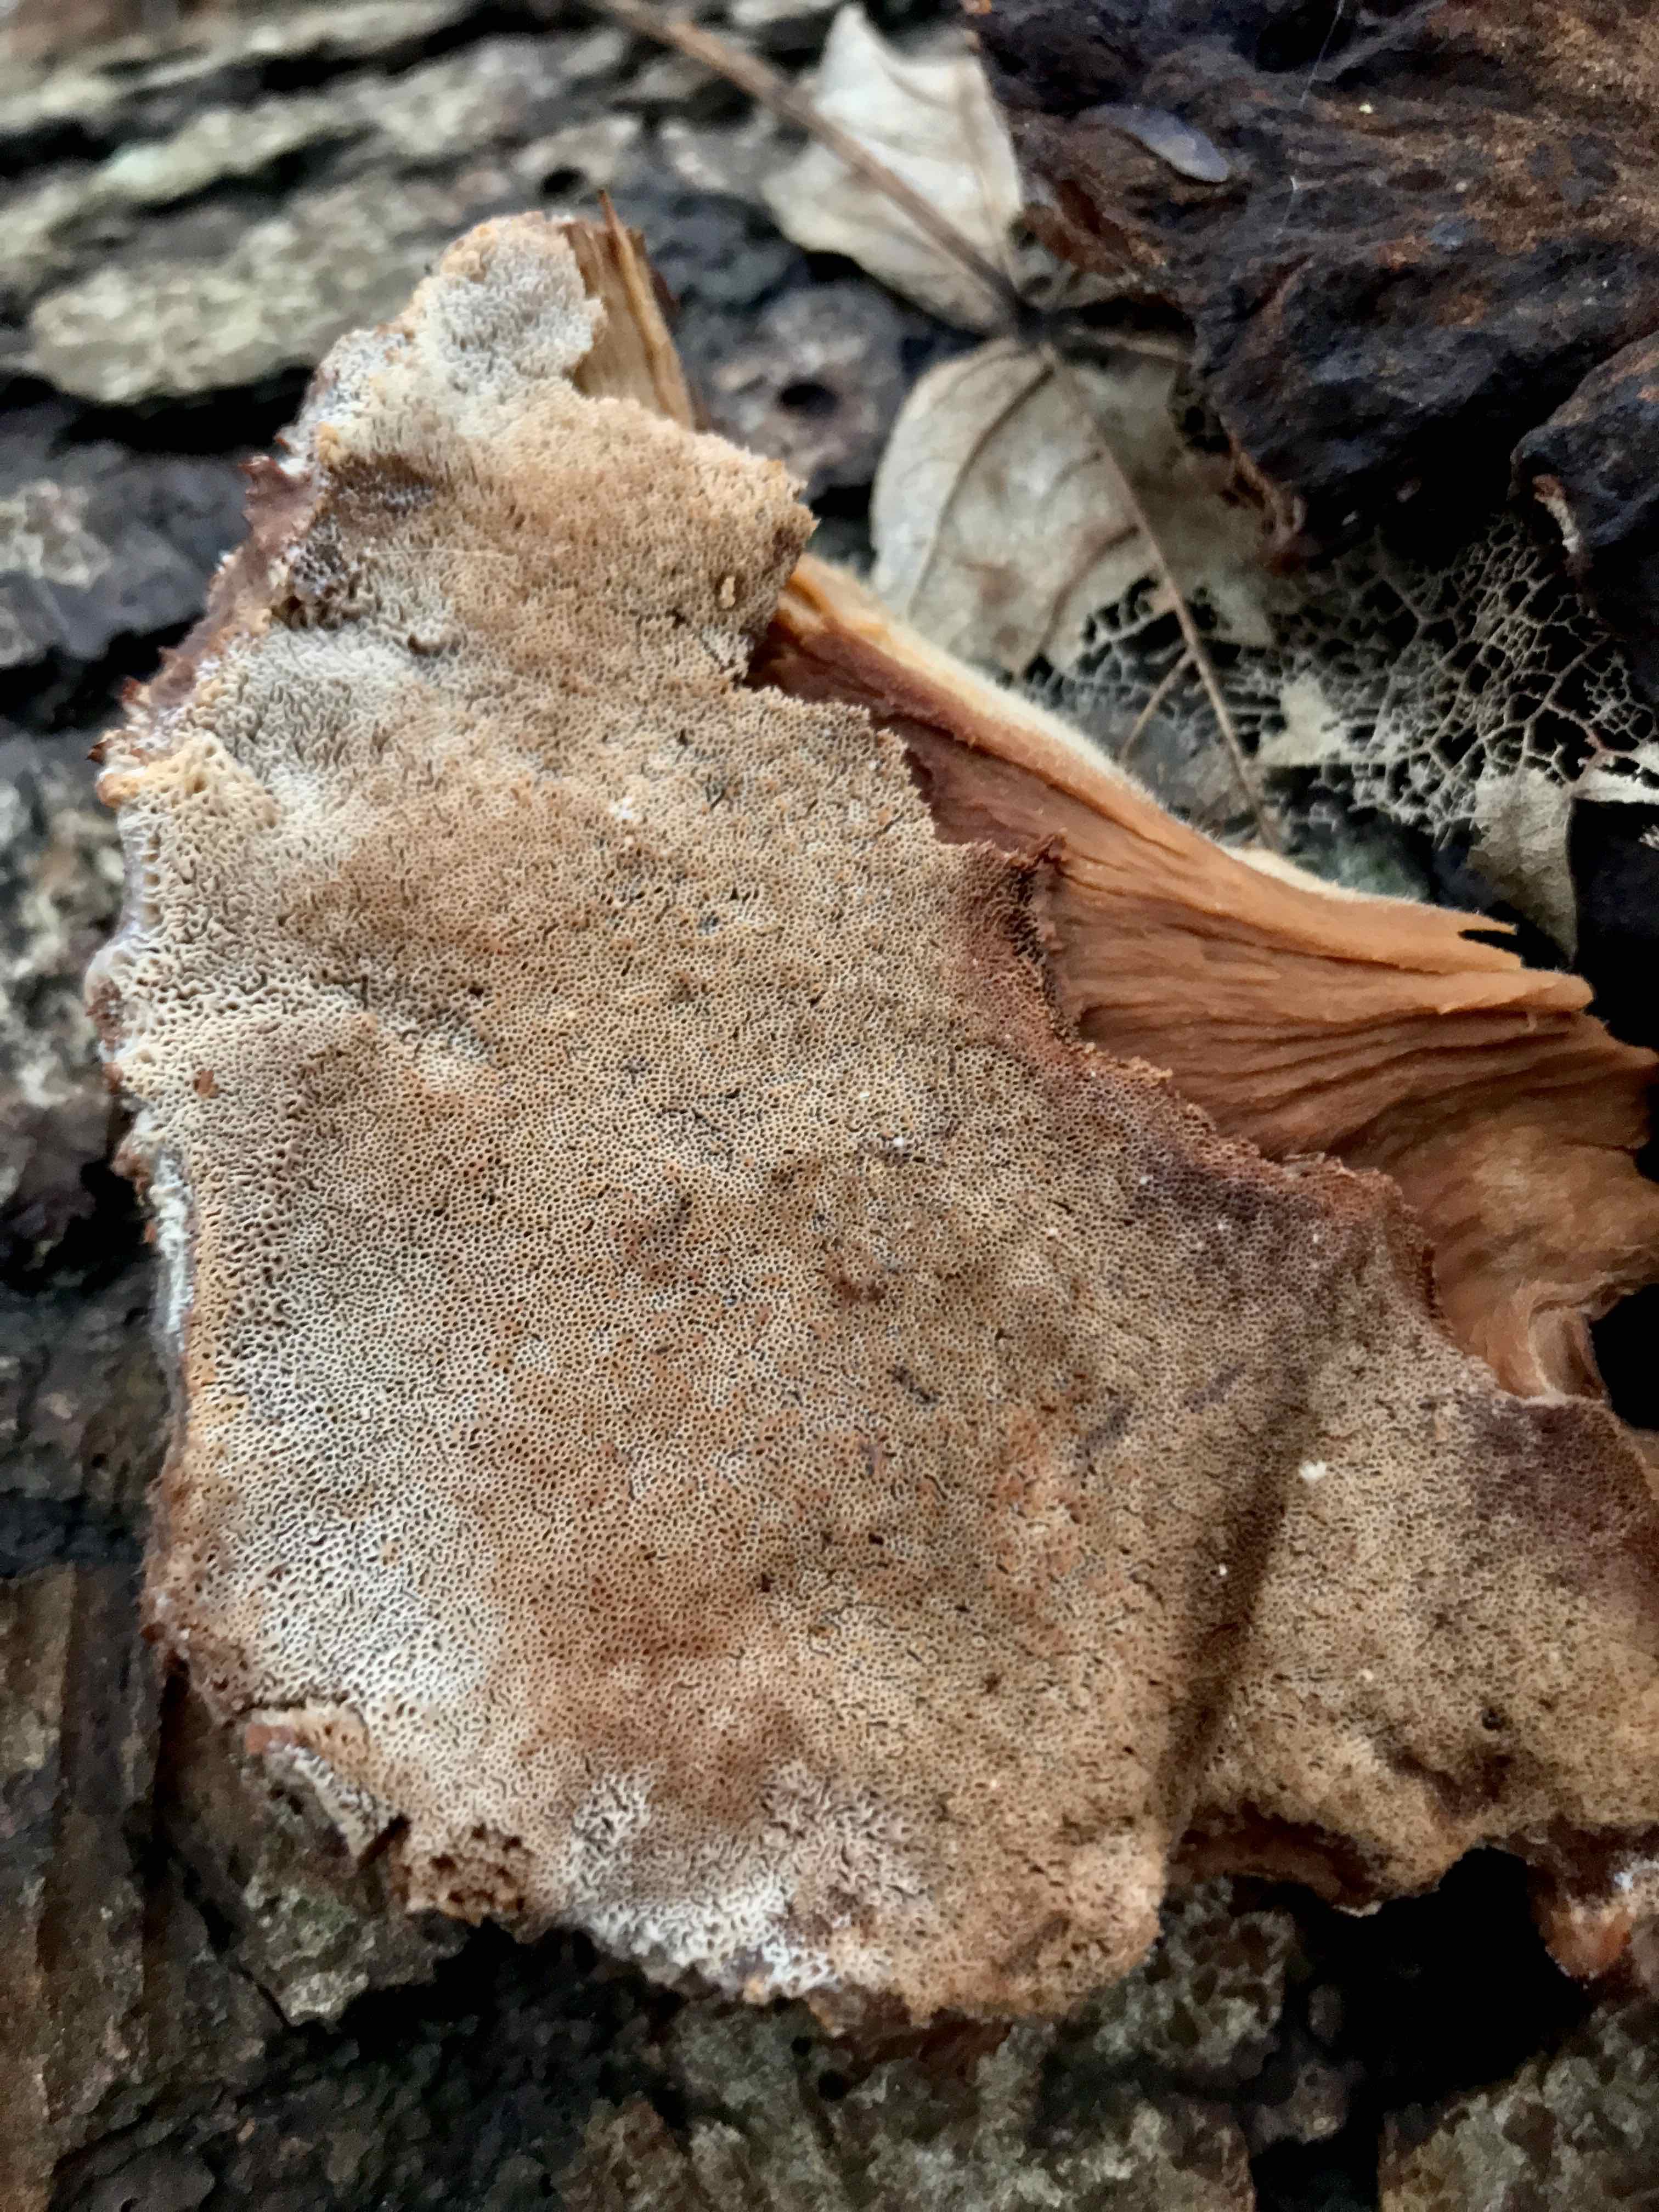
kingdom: Fungi
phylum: Basidiomycota
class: Agaricomycetes
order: Polyporales
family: Ischnodermataceae
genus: Ischnoderma
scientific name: Ischnoderma benzoinum
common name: gran-tjæreporesvamp
